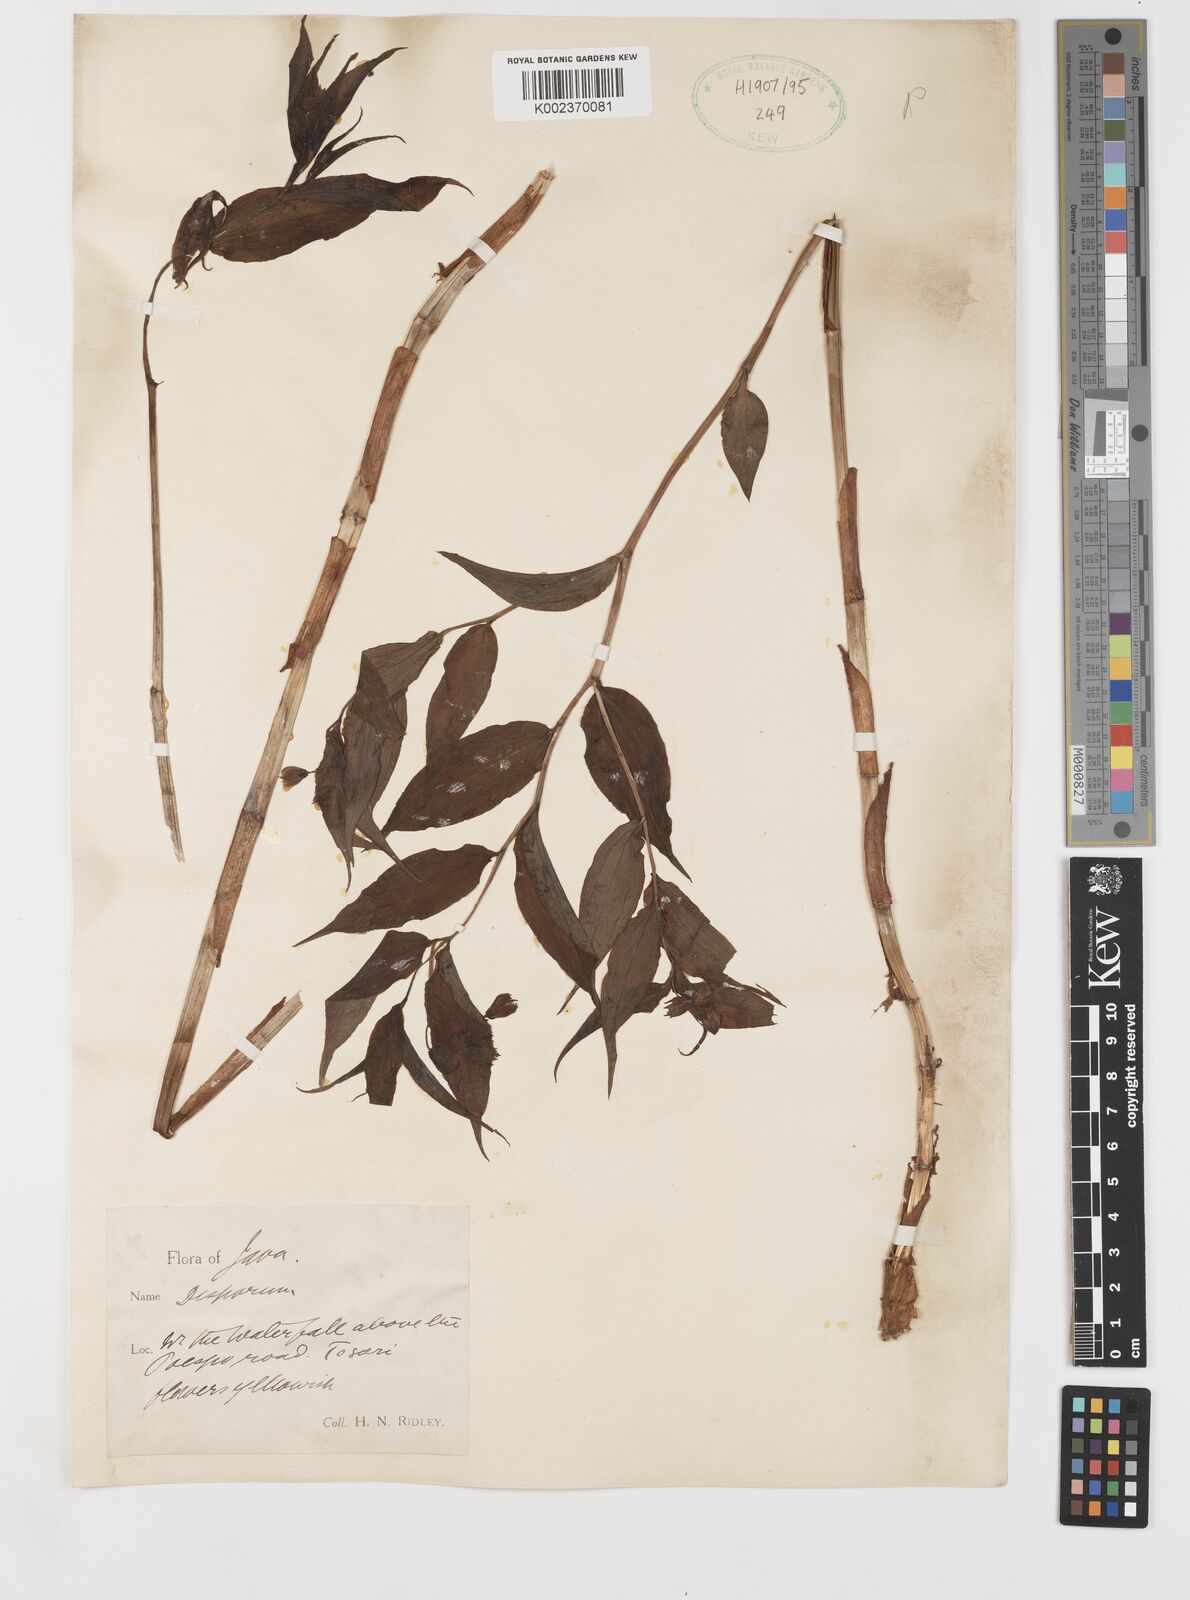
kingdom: Plantae
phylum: Tracheophyta
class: Liliopsida
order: Liliales
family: Colchicaceae
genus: Disporum
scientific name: Disporum cantoniense
